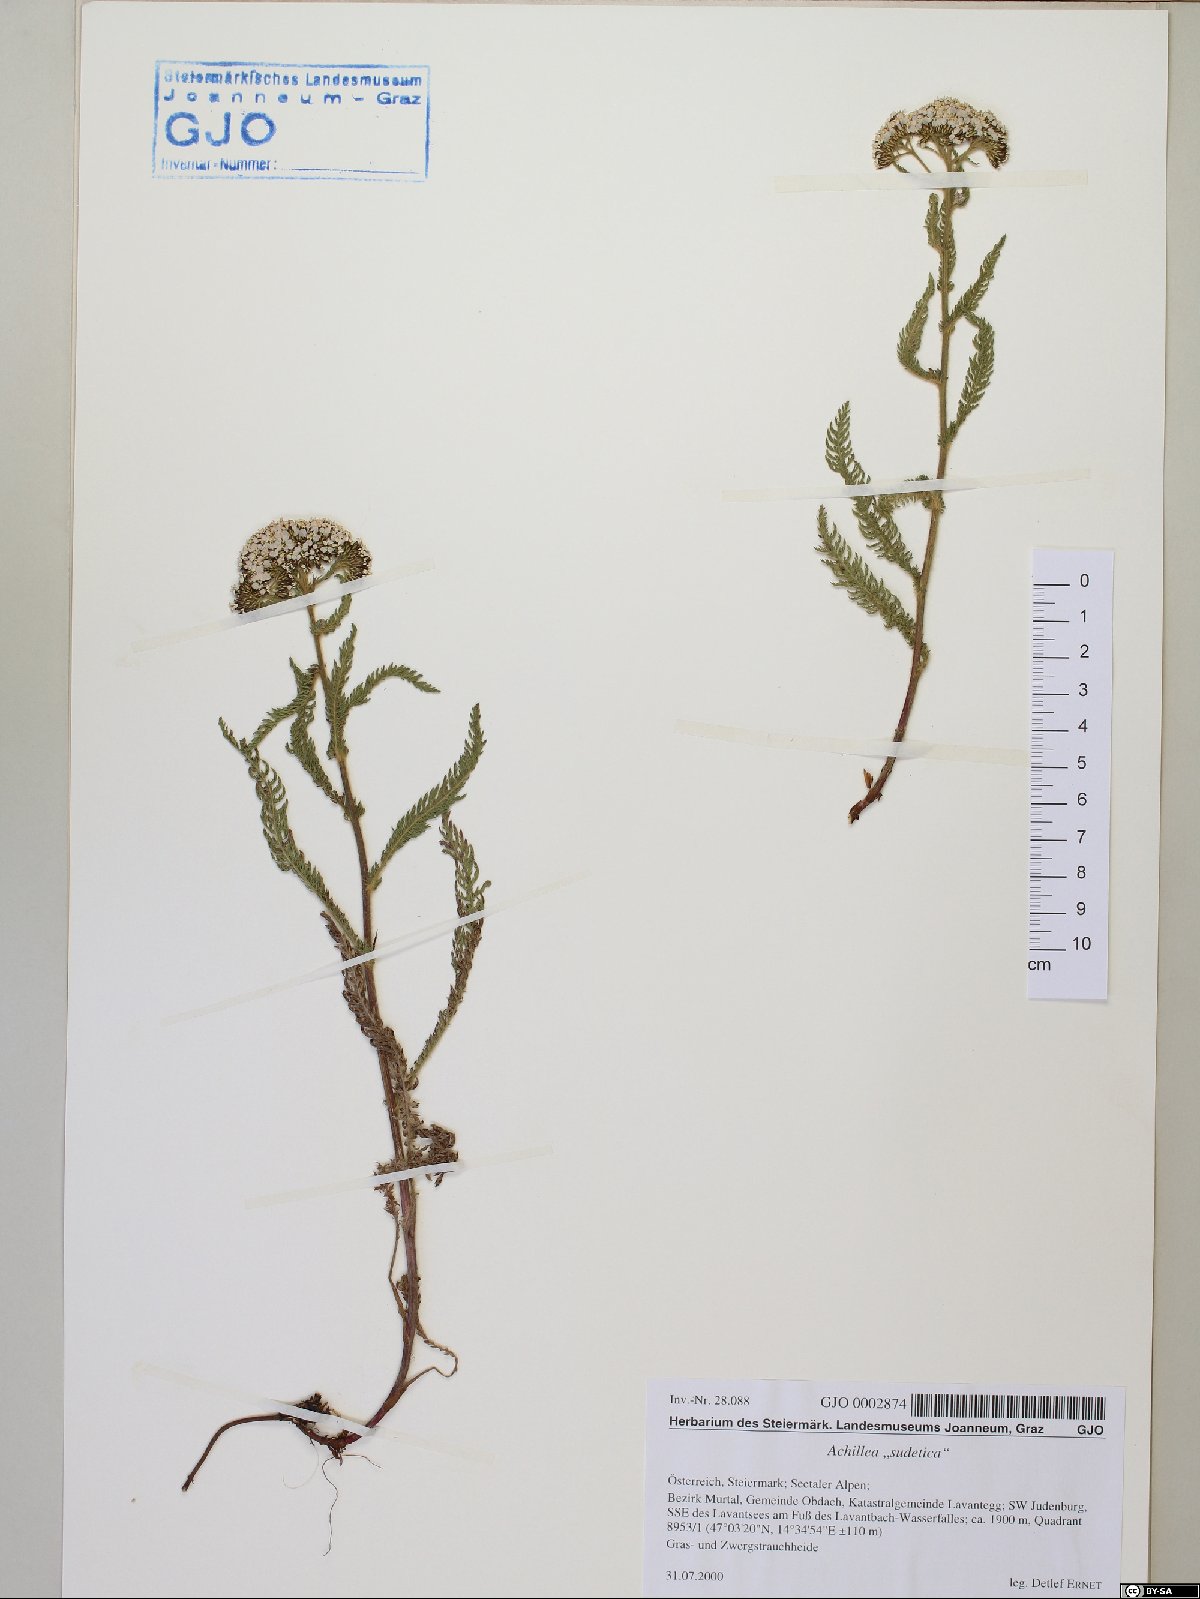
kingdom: Plantae
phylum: Tracheophyta
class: Magnoliopsida
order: Asterales
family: Asteraceae
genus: Achillea
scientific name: Achillea millefolium
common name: Yarrow
